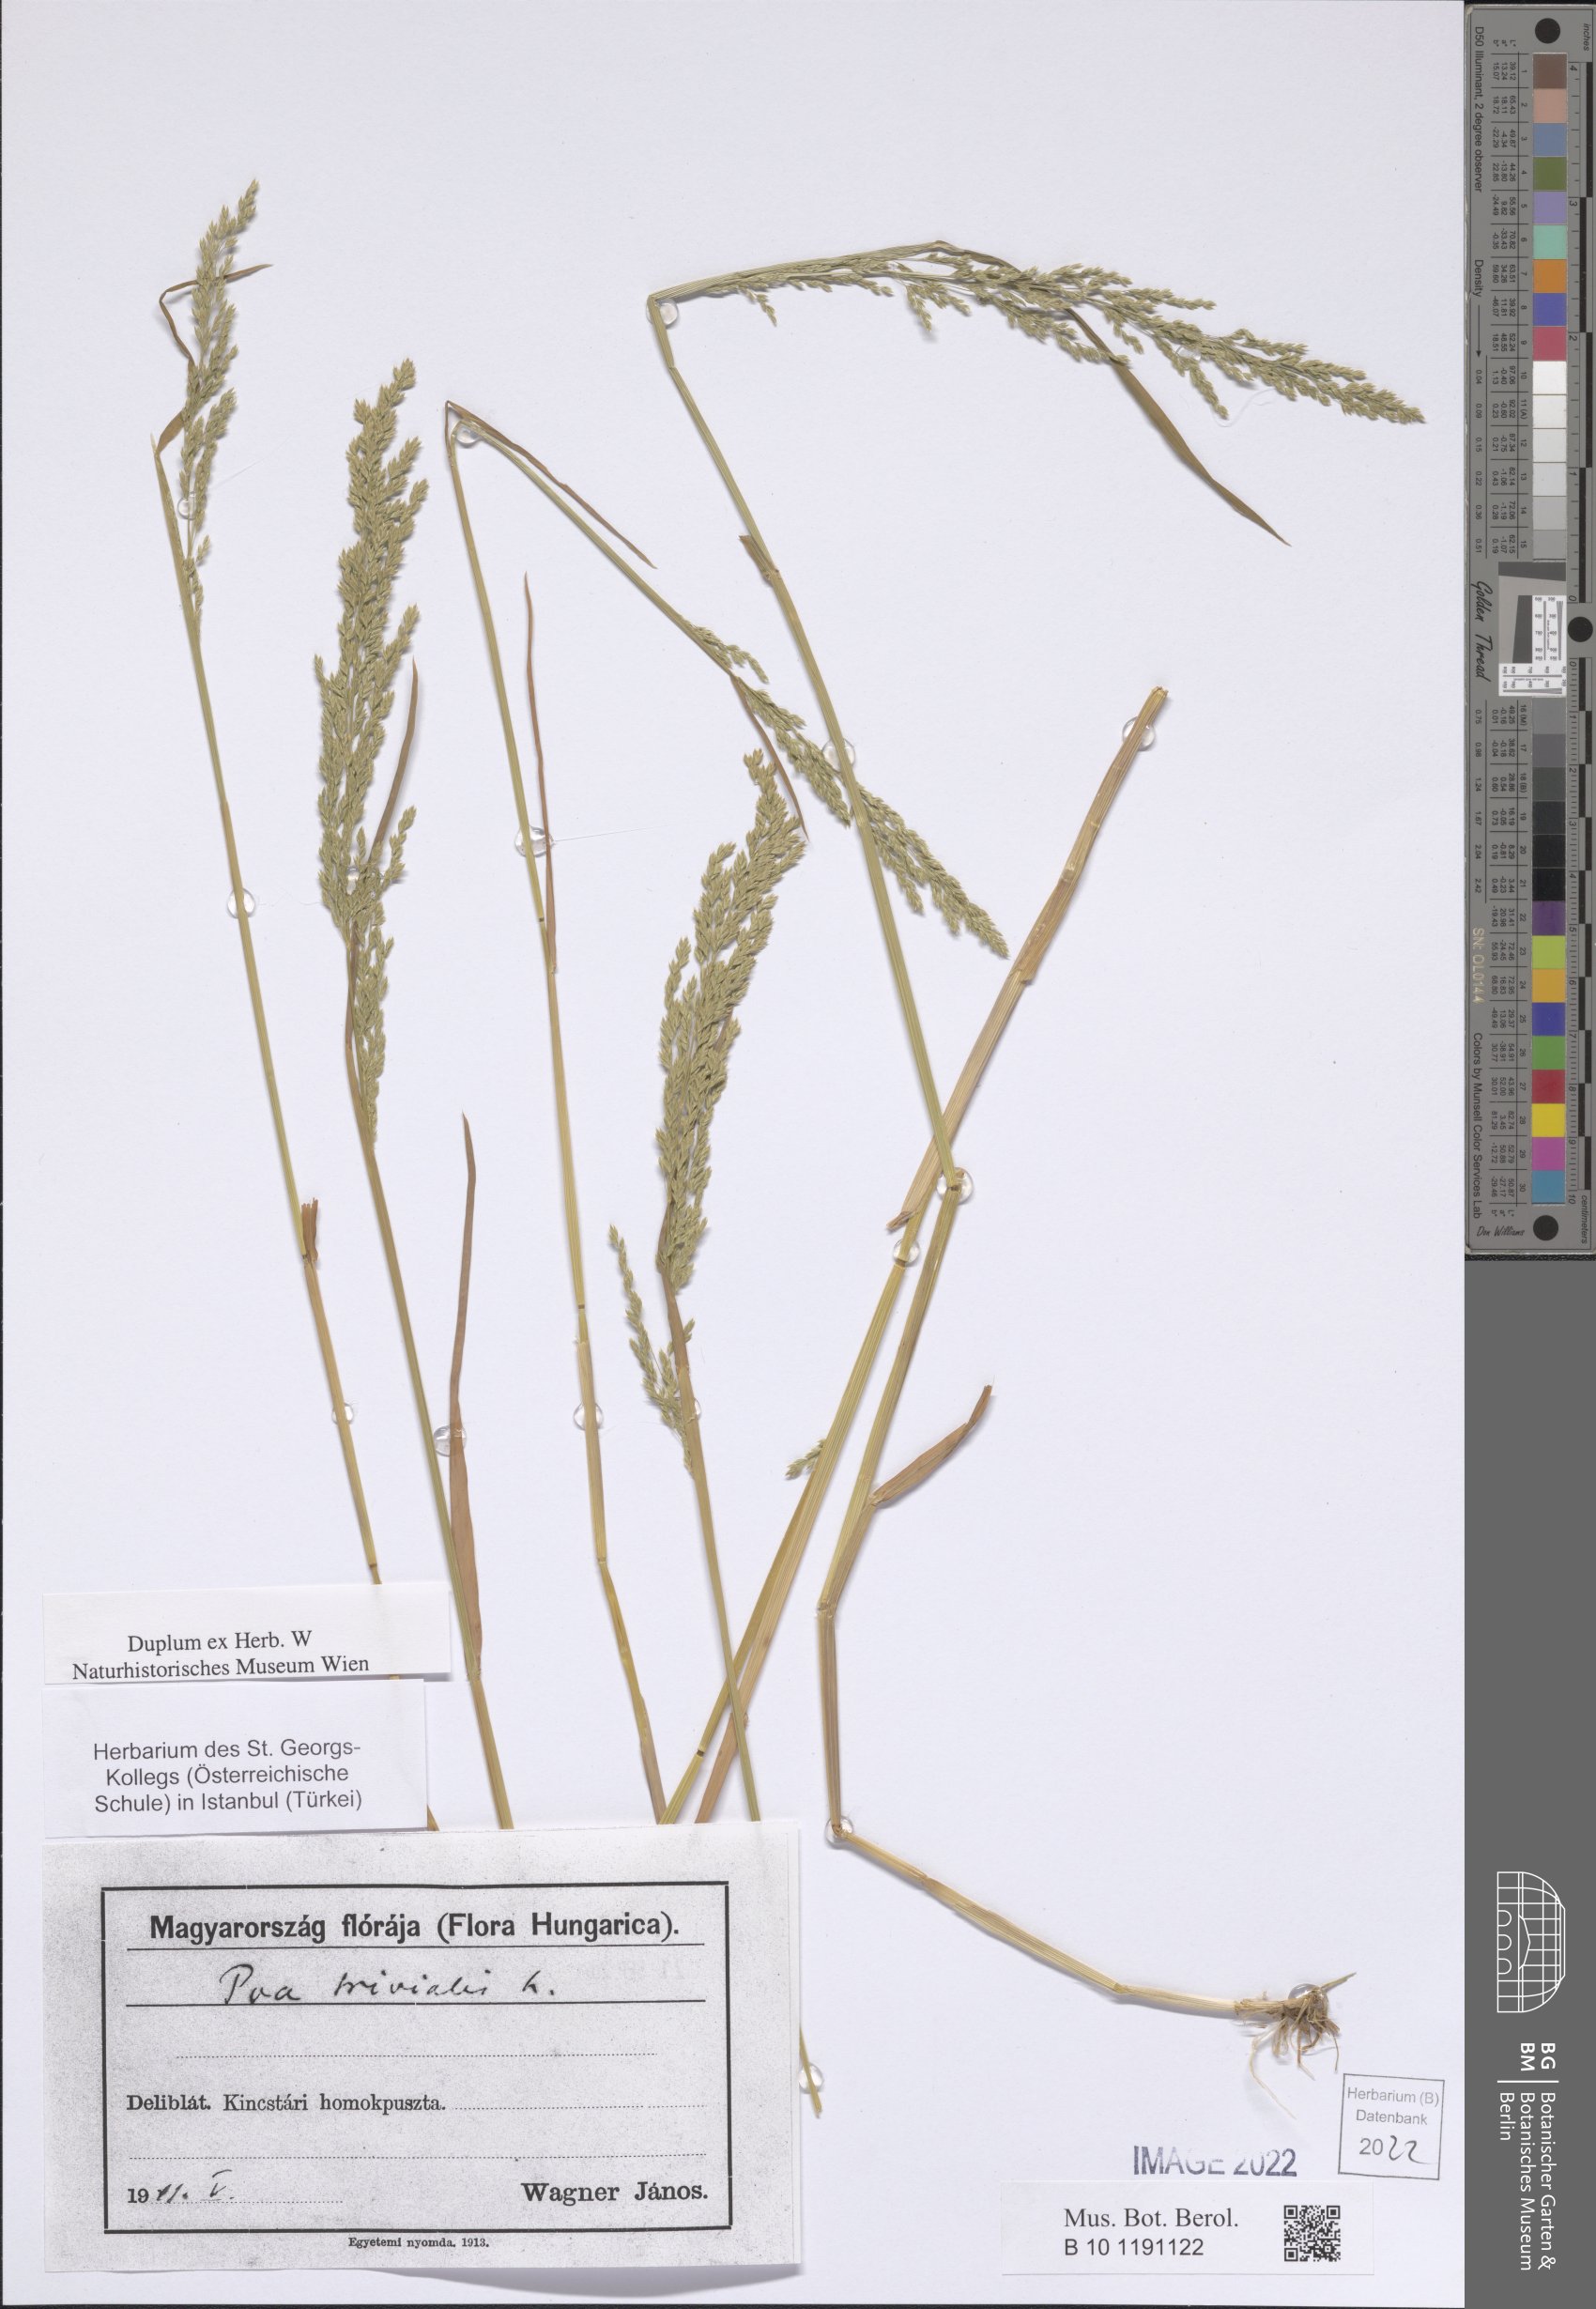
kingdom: Plantae
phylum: Tracheophyta
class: Liliopsida
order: Poales
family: Poaceae
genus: Poa
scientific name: Poa trivialis
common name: Rough bluegrass
